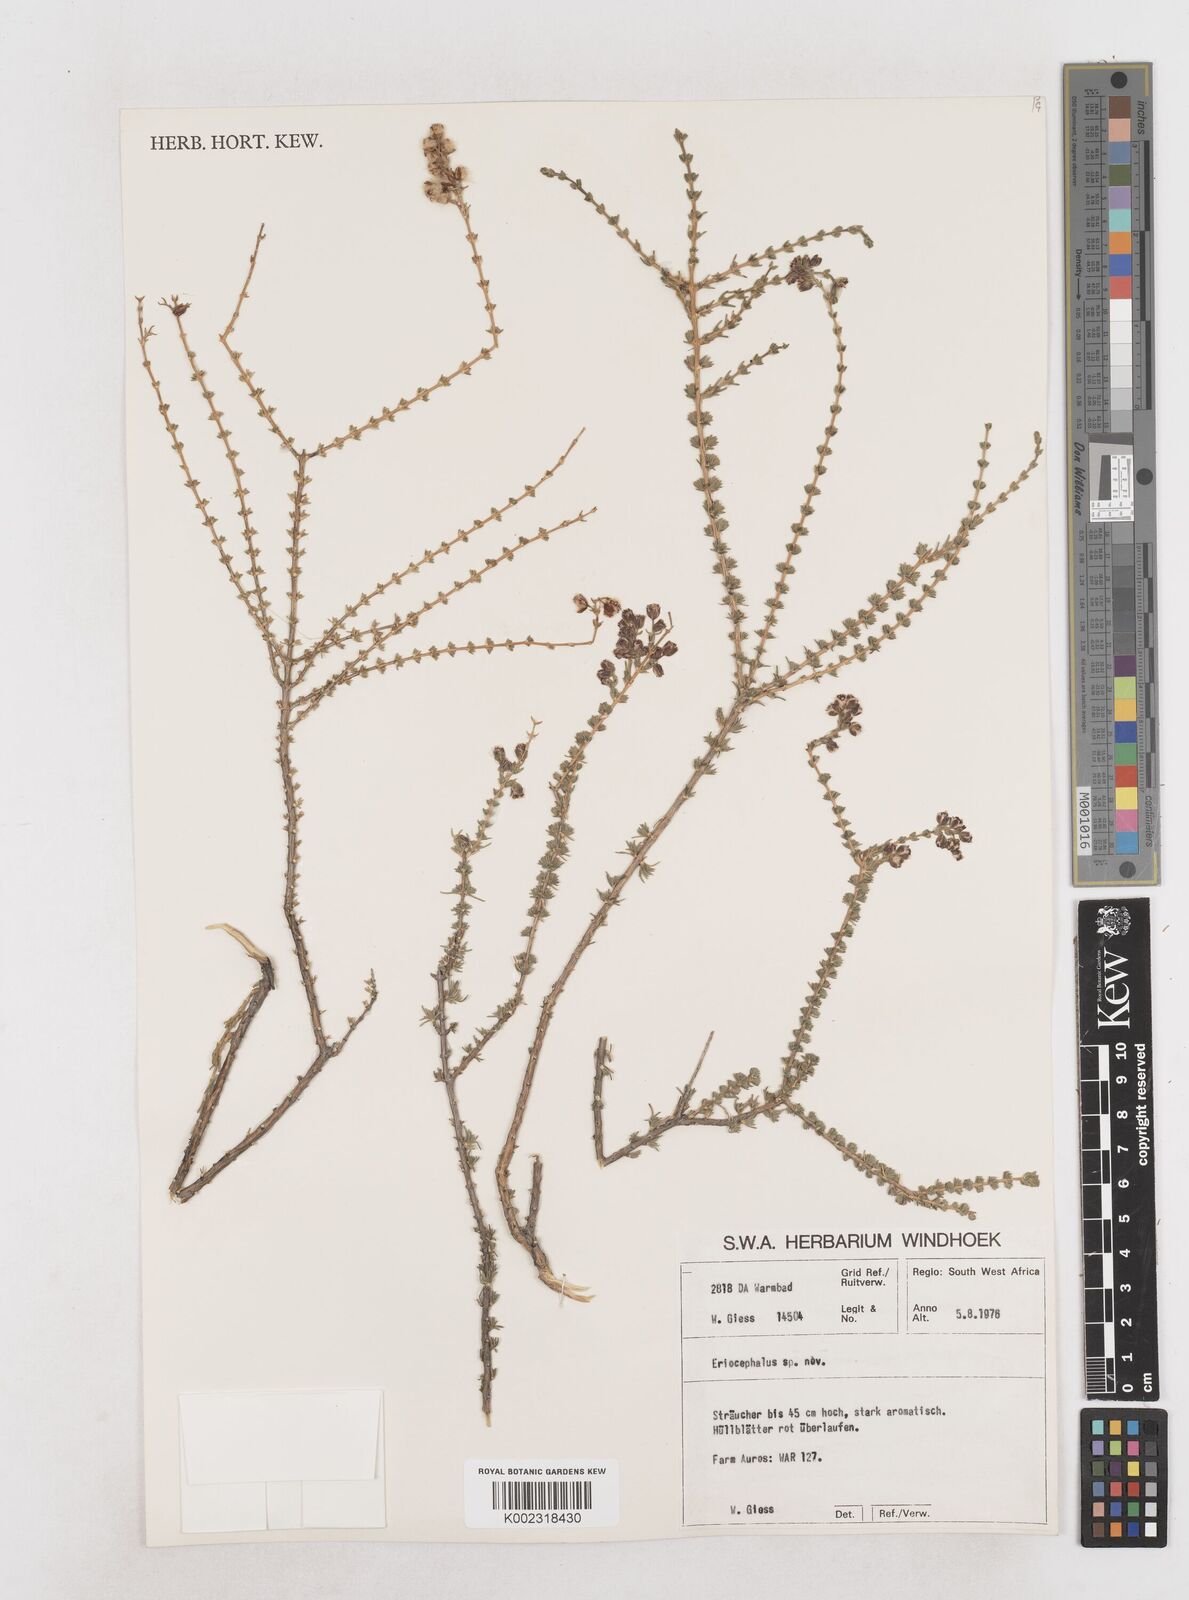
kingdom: Plantae
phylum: Tracheophyta
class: Magnoliopsida
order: Asterales
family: Asteraceae
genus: Eriocephalus
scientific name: Eriocephalus
